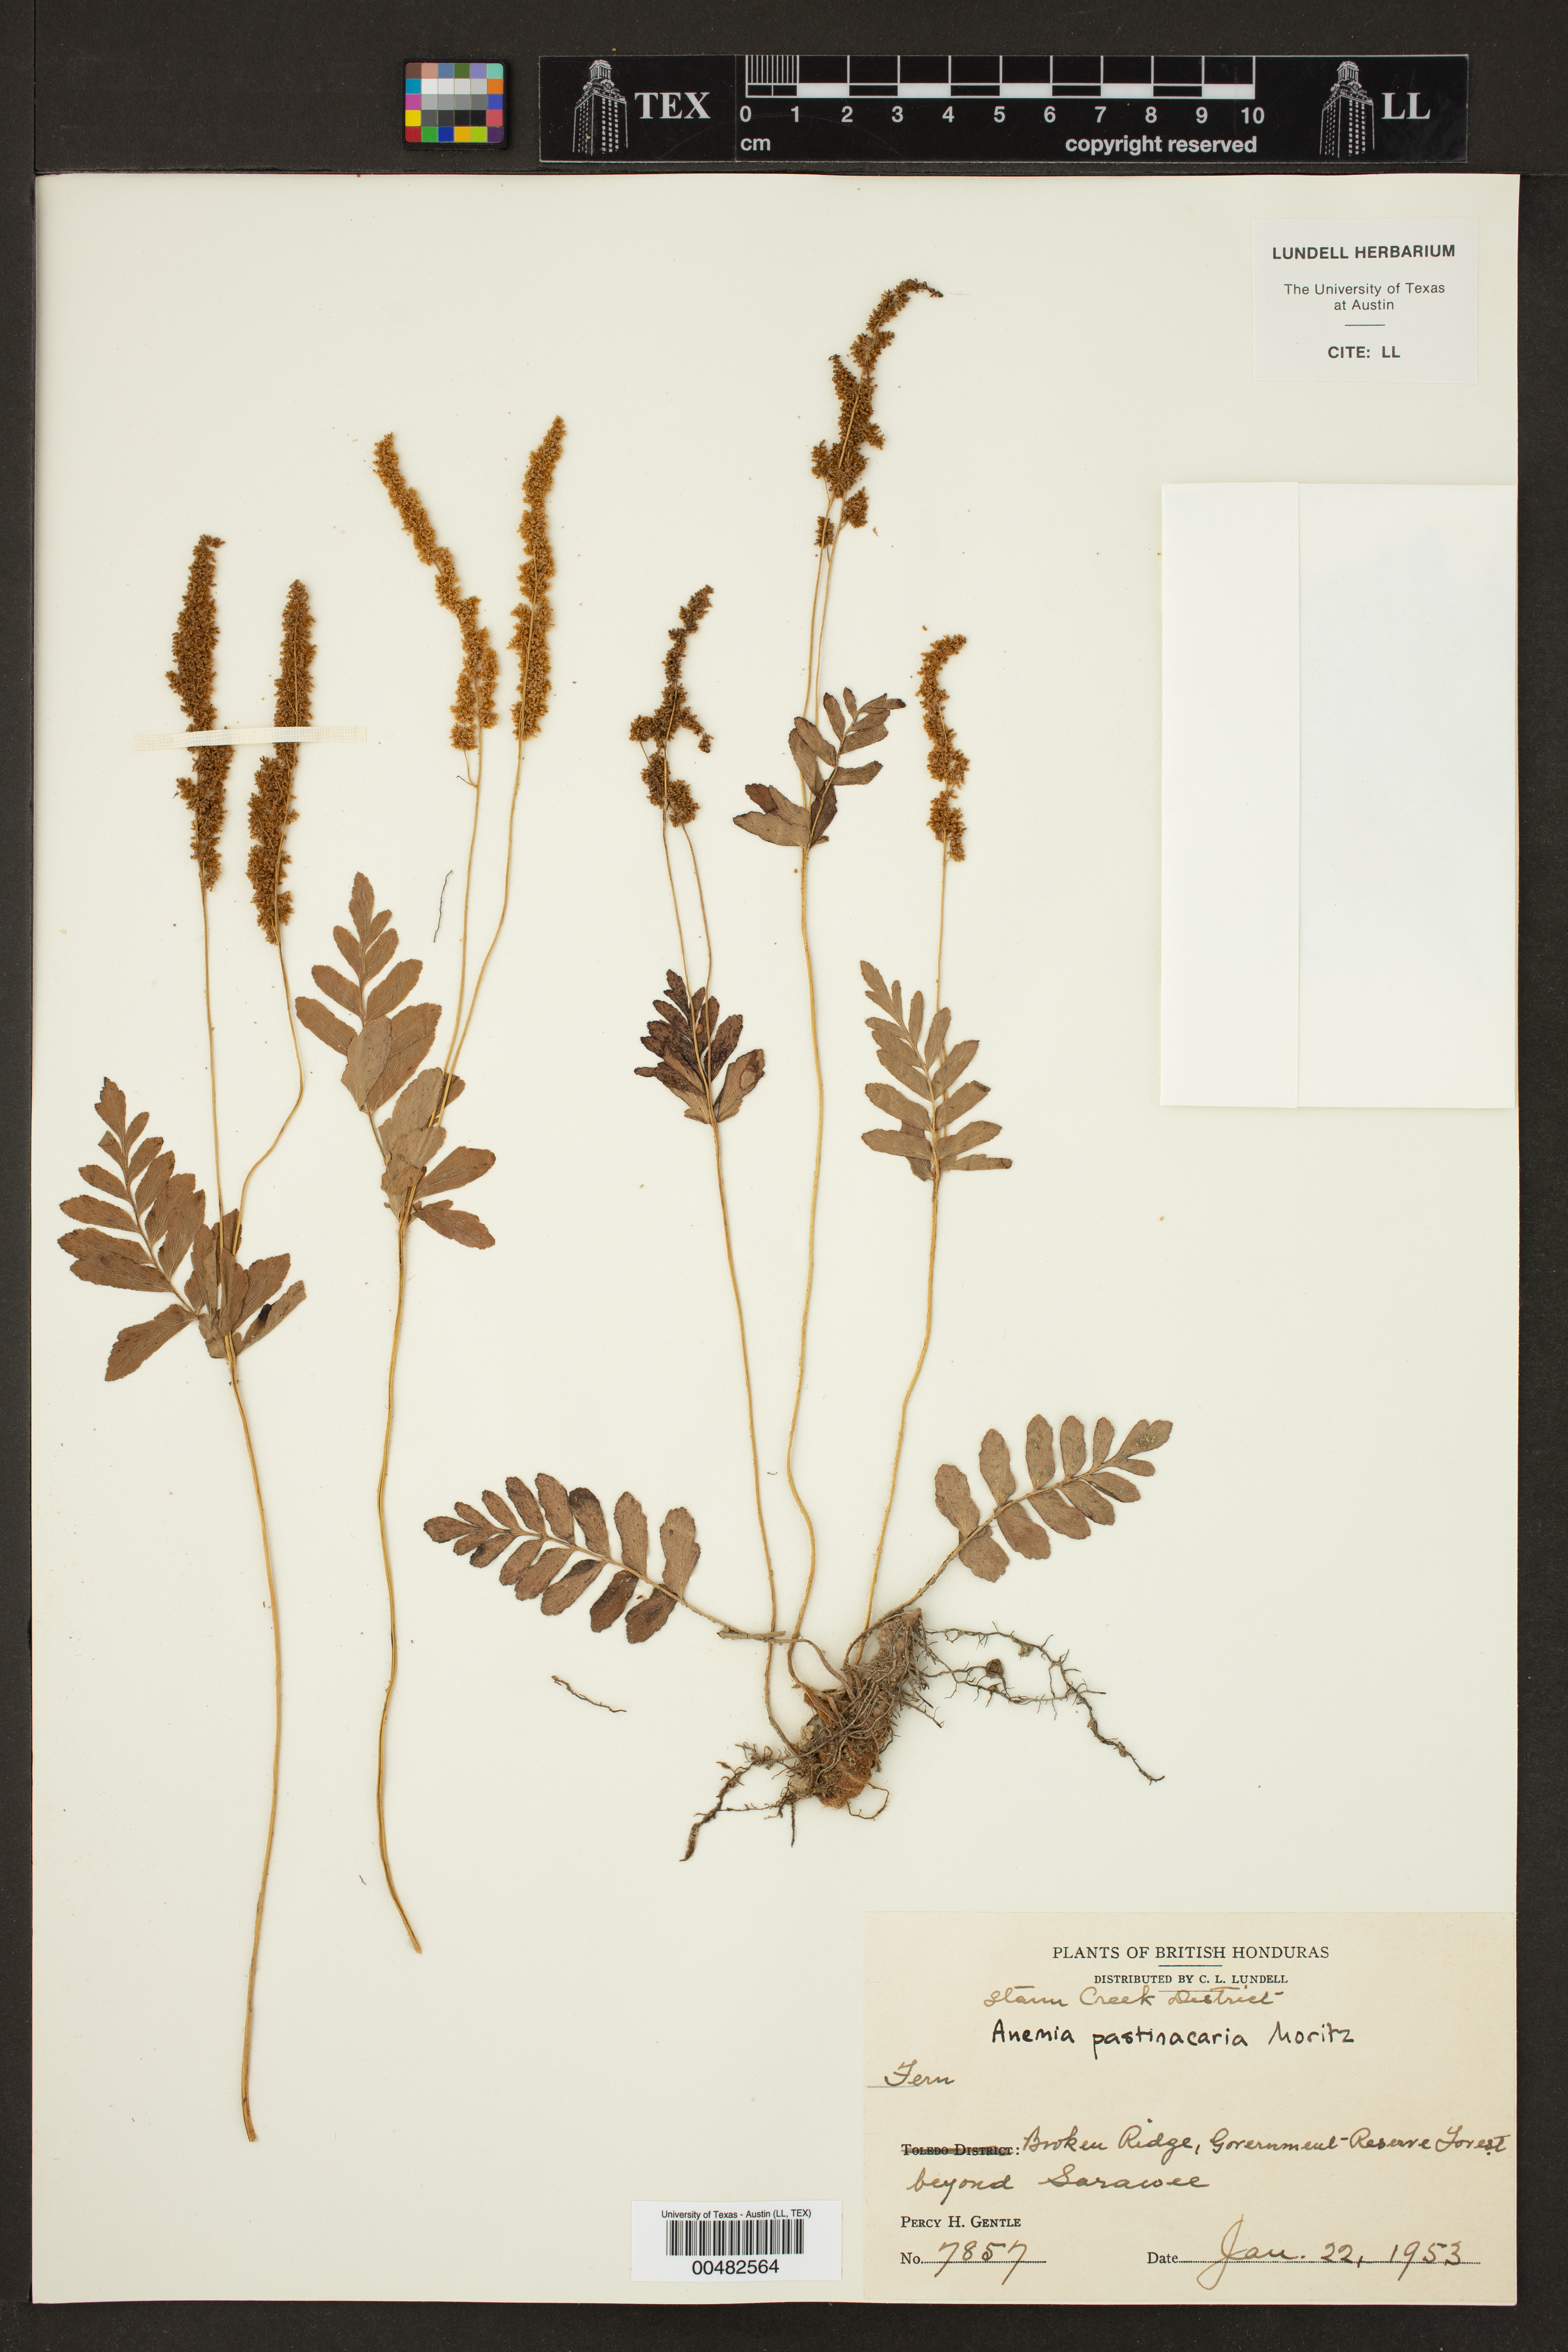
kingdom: Plantae
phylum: Tracheophyta
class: Polypodiopsida
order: Schizaeales
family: Anemiaceae
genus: Anemia
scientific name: Anemia hispida
